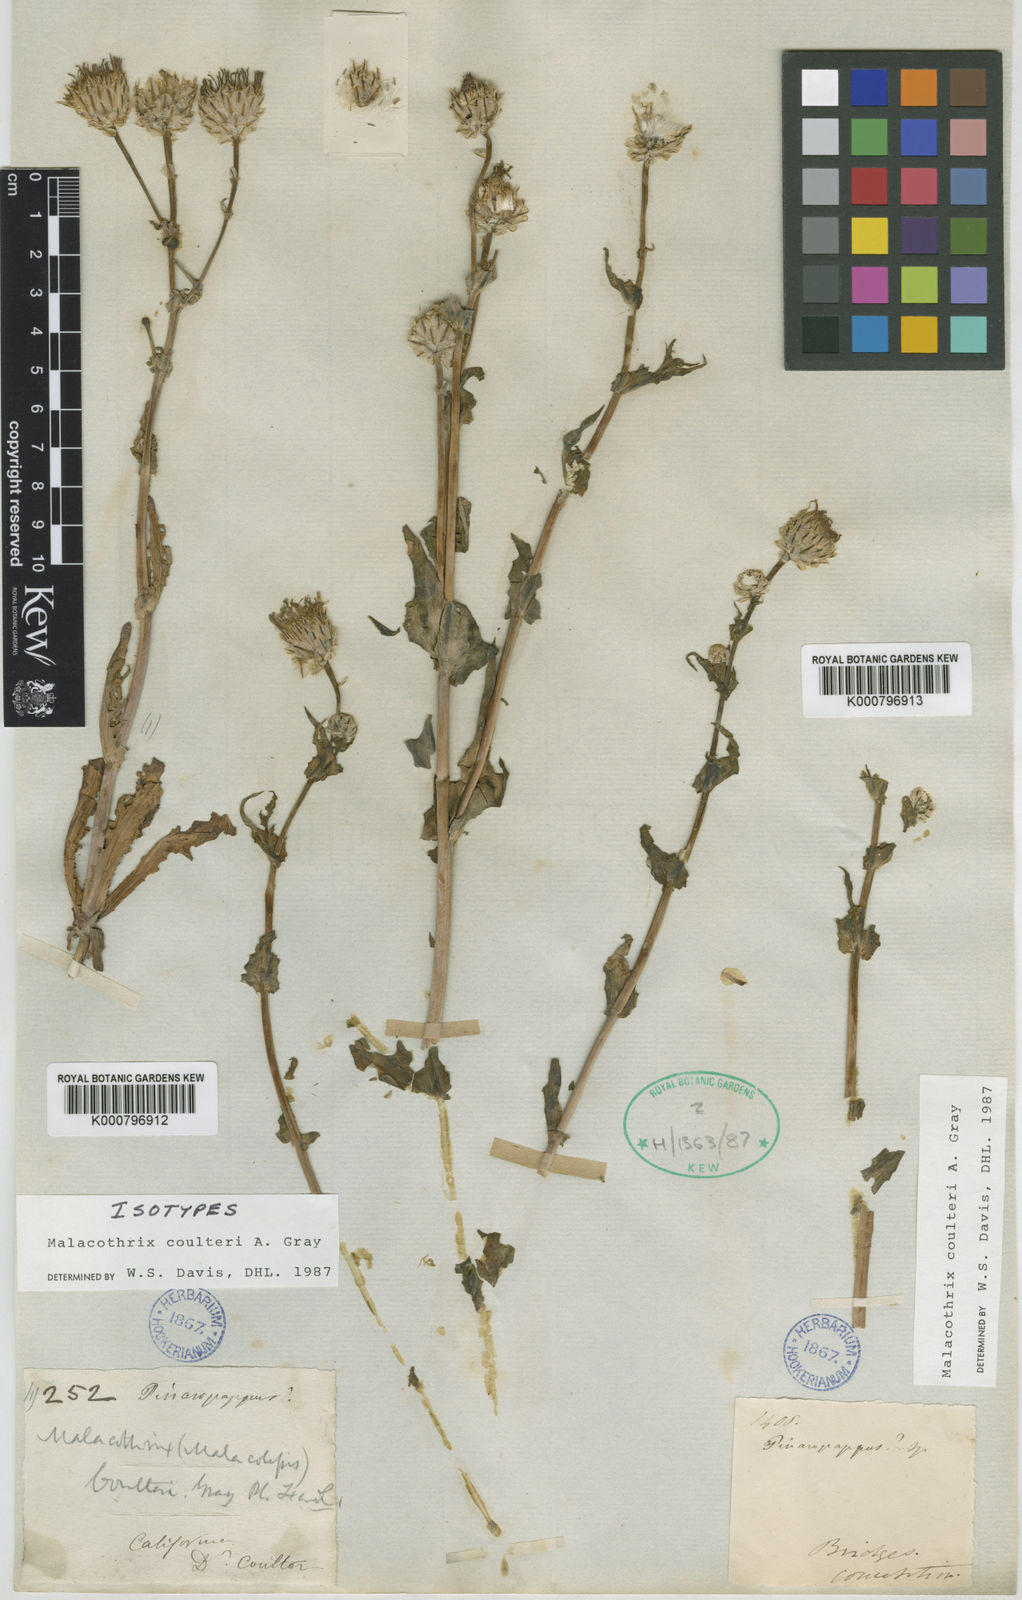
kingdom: Plantae
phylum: Tracheophyta
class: Magnoliopsida
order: Asterales
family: Asteraceae
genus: Malacothrix
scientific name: Malacothrix coulteri
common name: Snake's-head
